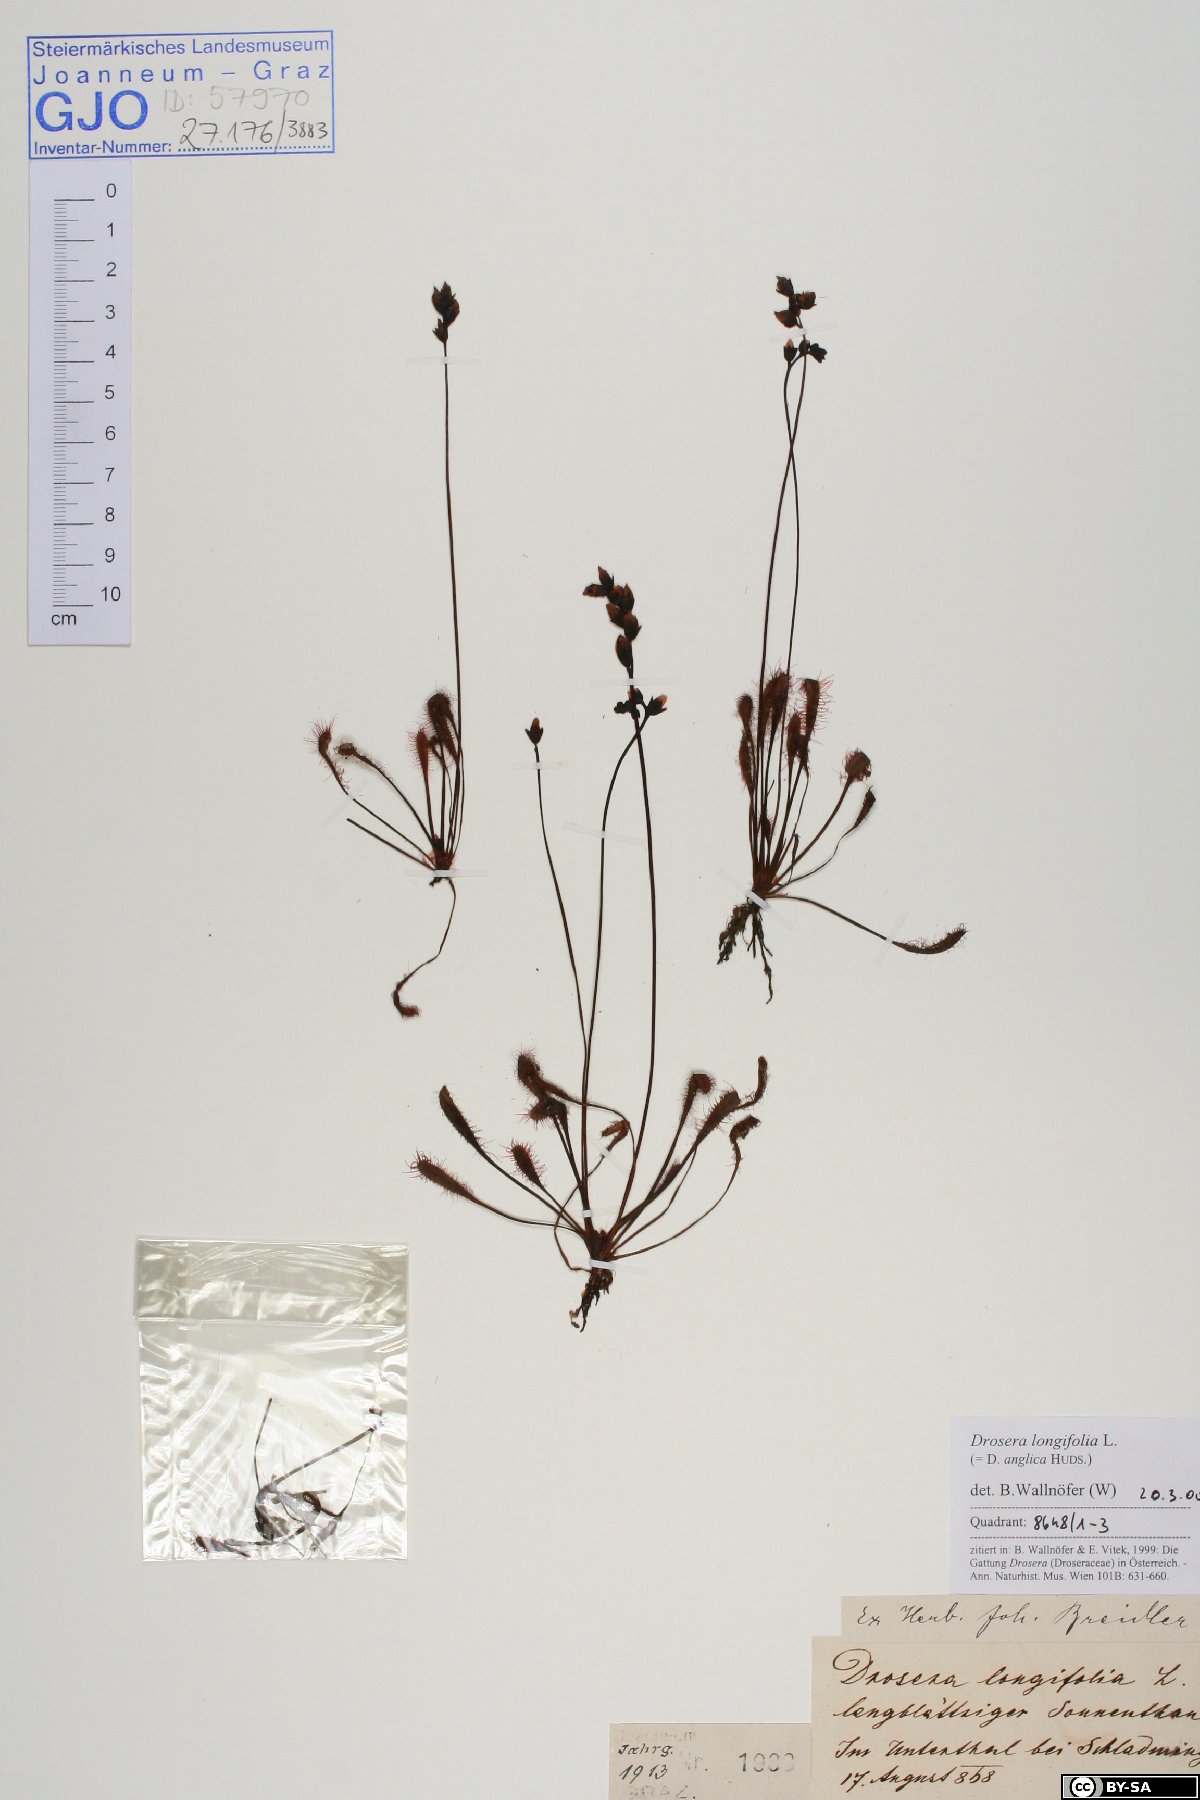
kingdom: Plantae
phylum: Tracheophyta
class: Magnoliopsida
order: Caryophyllales
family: Droseraceae
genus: Drosera
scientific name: Drosera anglica
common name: Great sundew
